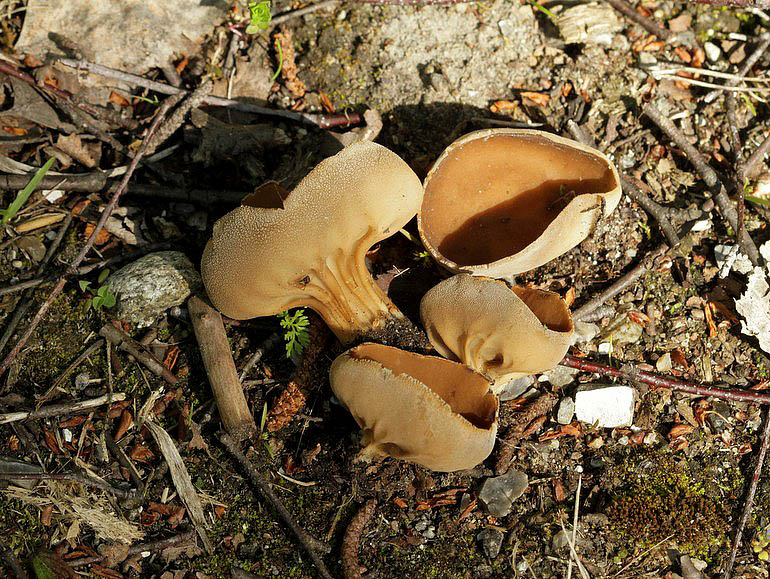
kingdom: Fungi
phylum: Ascomycota
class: Pezizomycetes
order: Pezizales
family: Helvellaceae
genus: Helvella
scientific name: Helvella acetabulum
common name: pokal-foldhat
